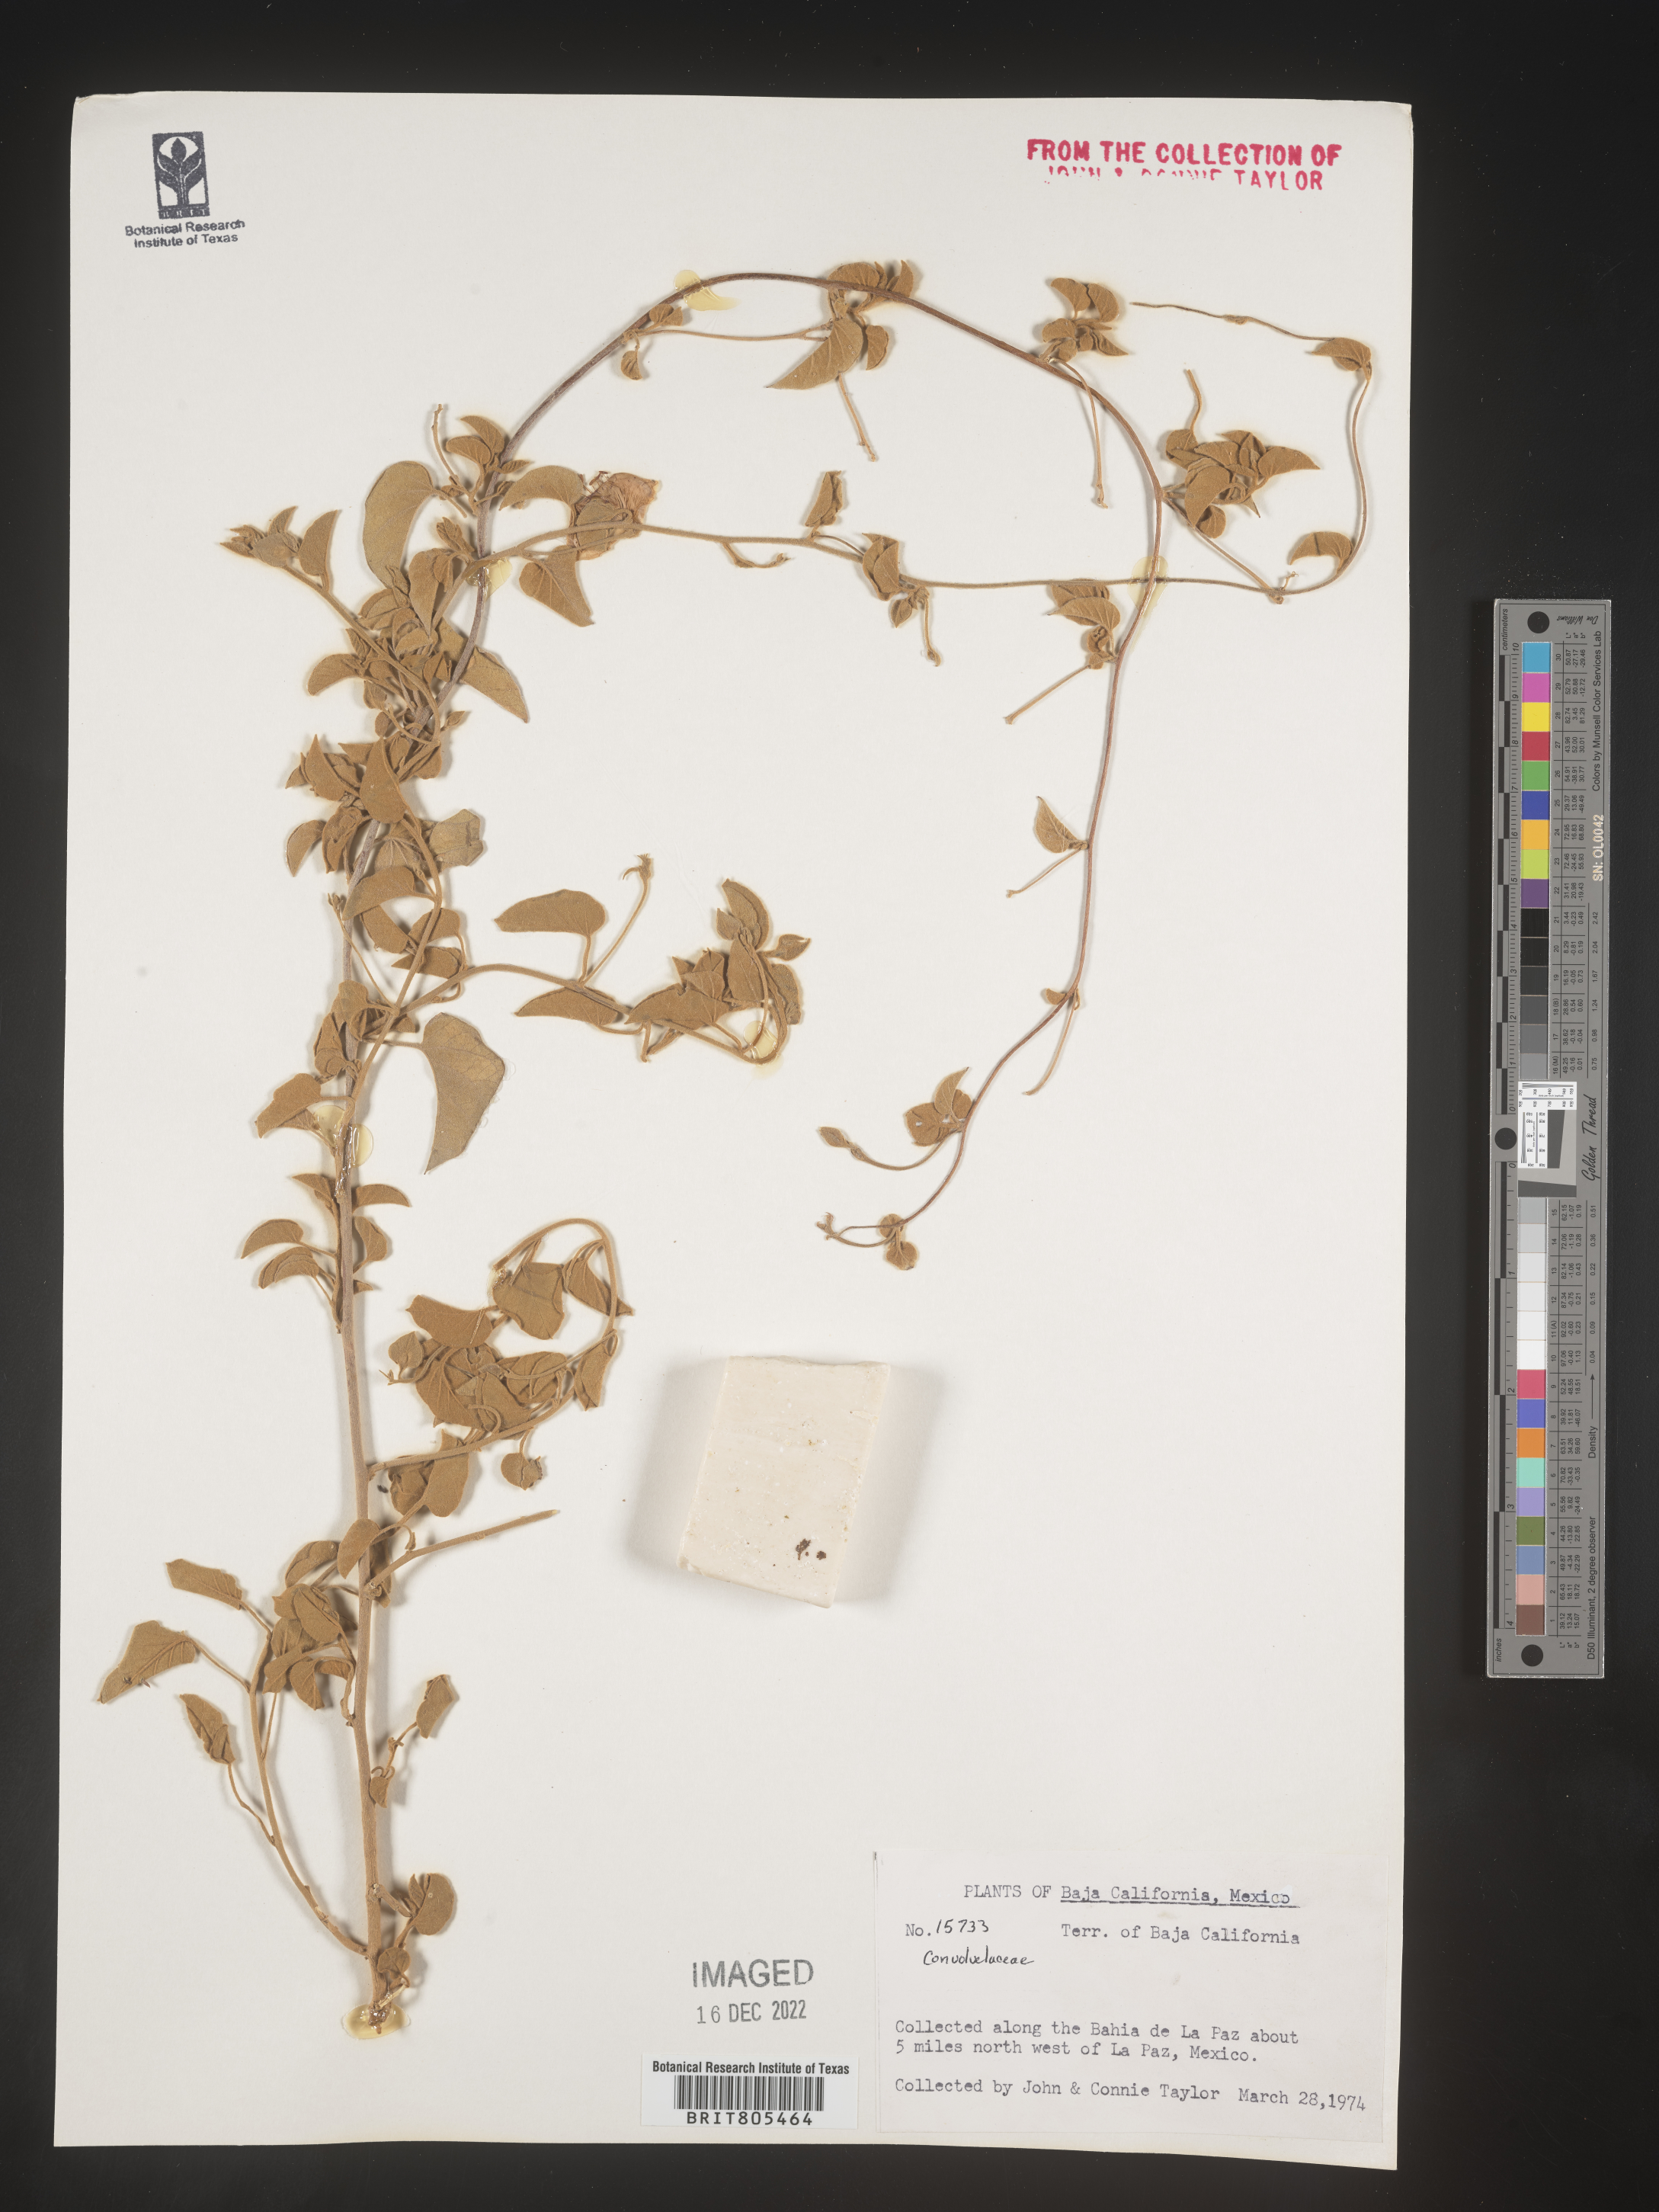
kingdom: Plantae
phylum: Tracheophyta
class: Magnoliopsida
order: Solanales
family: Convolvulaceae
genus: Ipomoea
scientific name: Ipomoea
